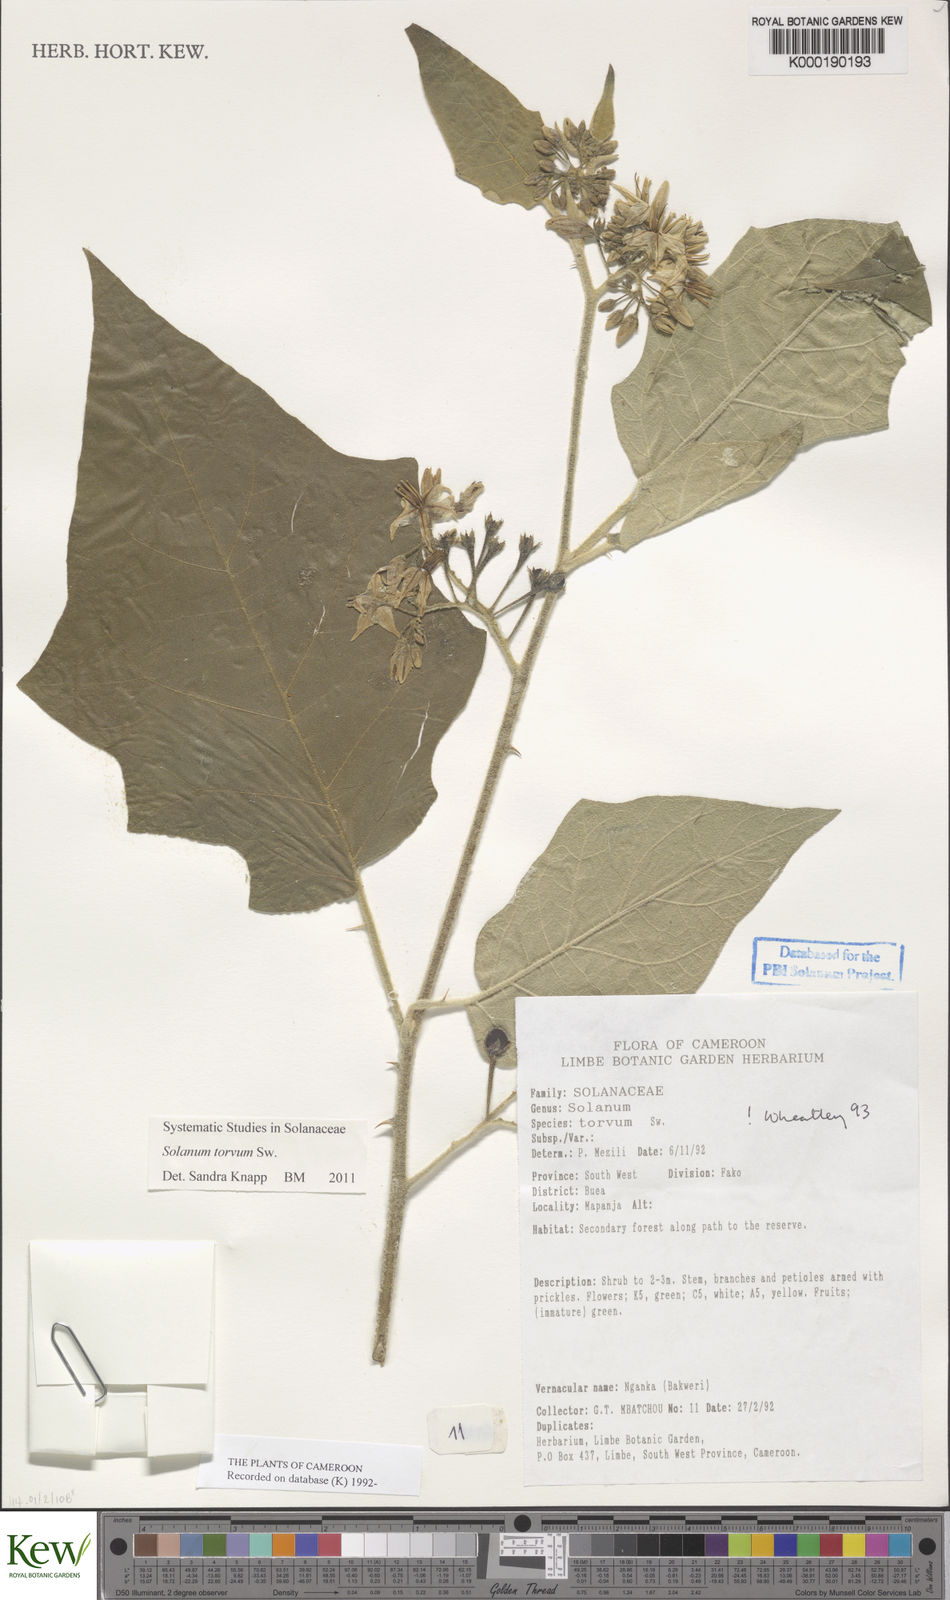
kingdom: Plantae
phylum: Tracheophyta
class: Magnoliopsida
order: Solanales
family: Solanaceae
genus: Solanum
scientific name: Solanum torvum
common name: Turkey berry
